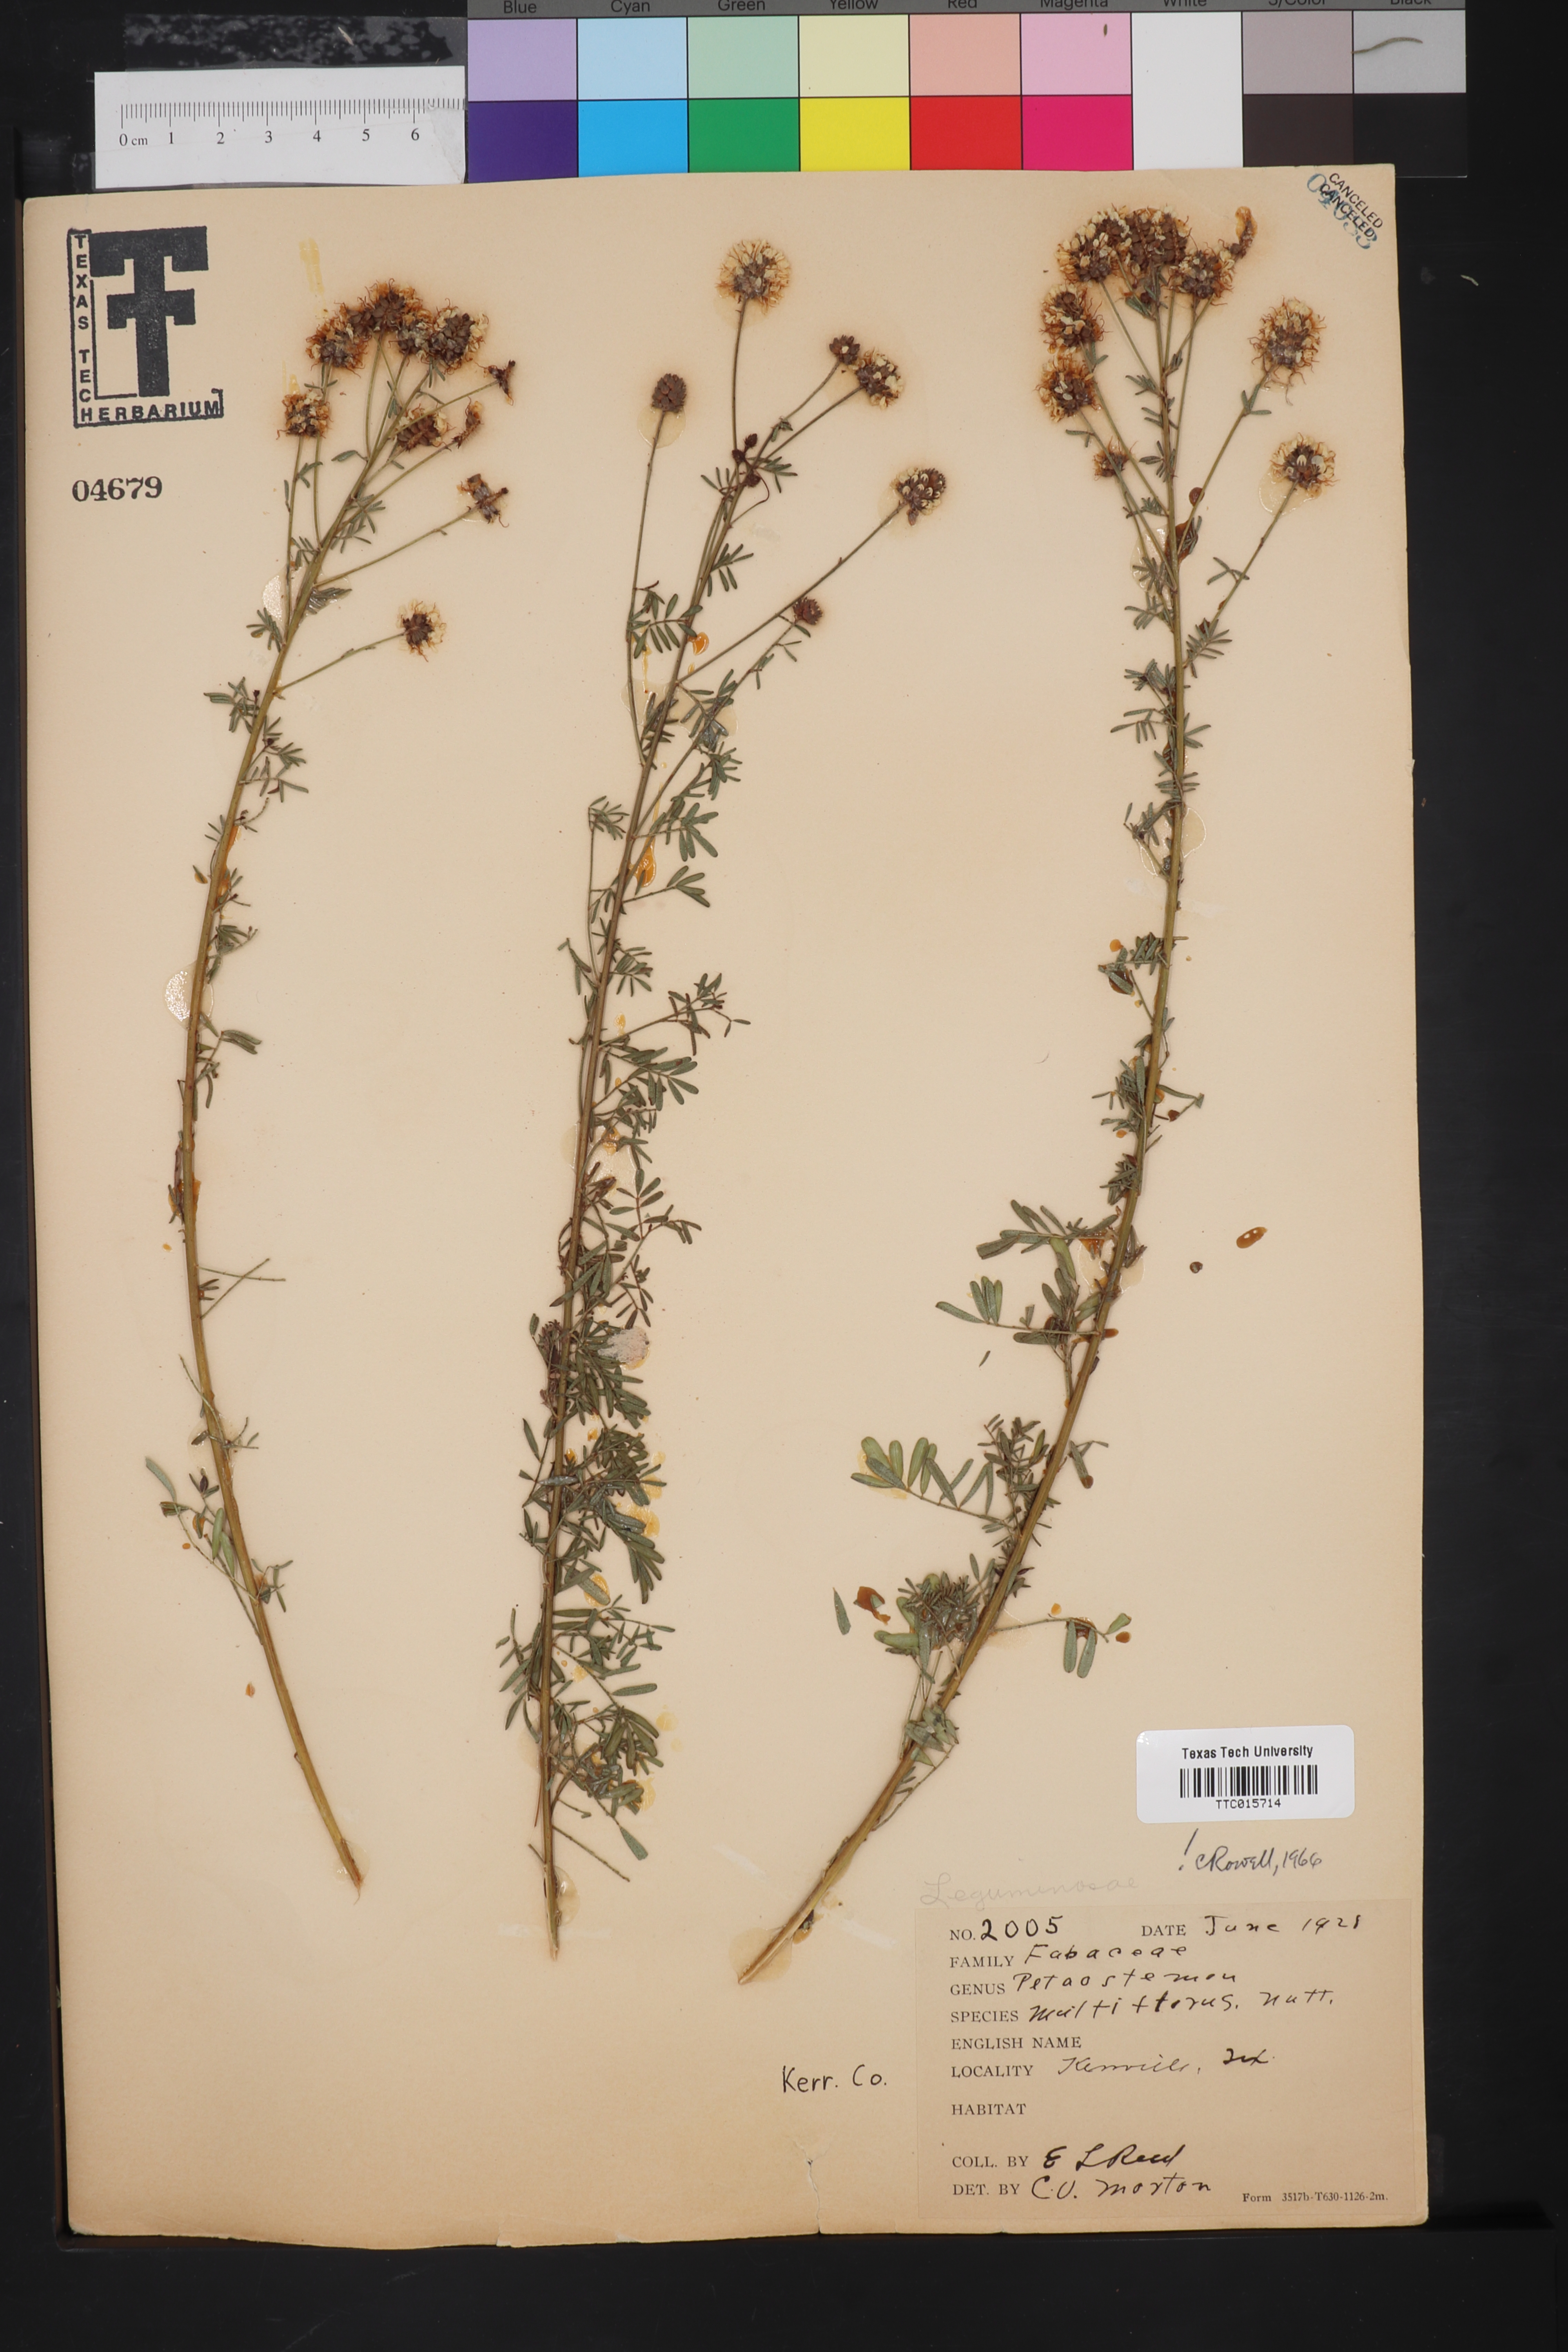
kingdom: Plantae
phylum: Tracheophyta
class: Magnoliopsida
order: Fabales
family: Fabaceae
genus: Petalostemum
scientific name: Petalostemum
